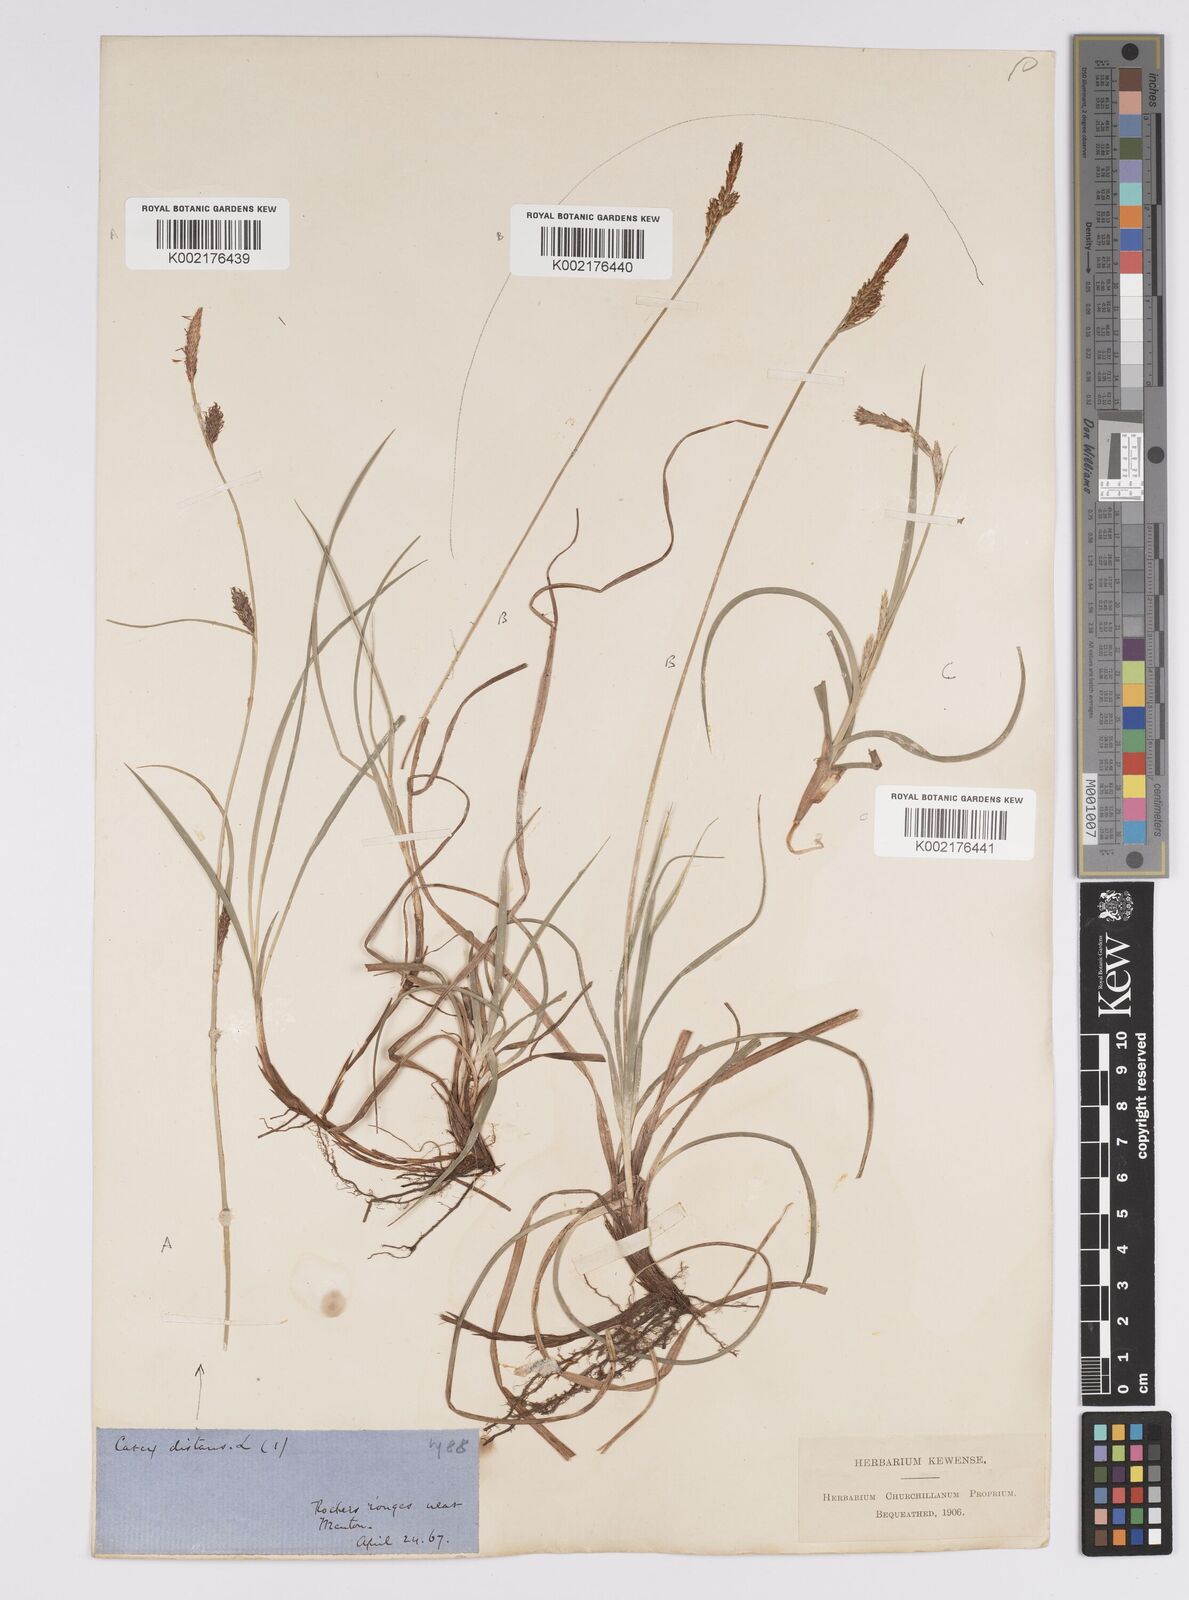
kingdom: Plantae
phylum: Tracheophyta
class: Liliopsida
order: Poales
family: Cyperaceae
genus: Carex
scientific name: Carex distans
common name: Distant sedge
